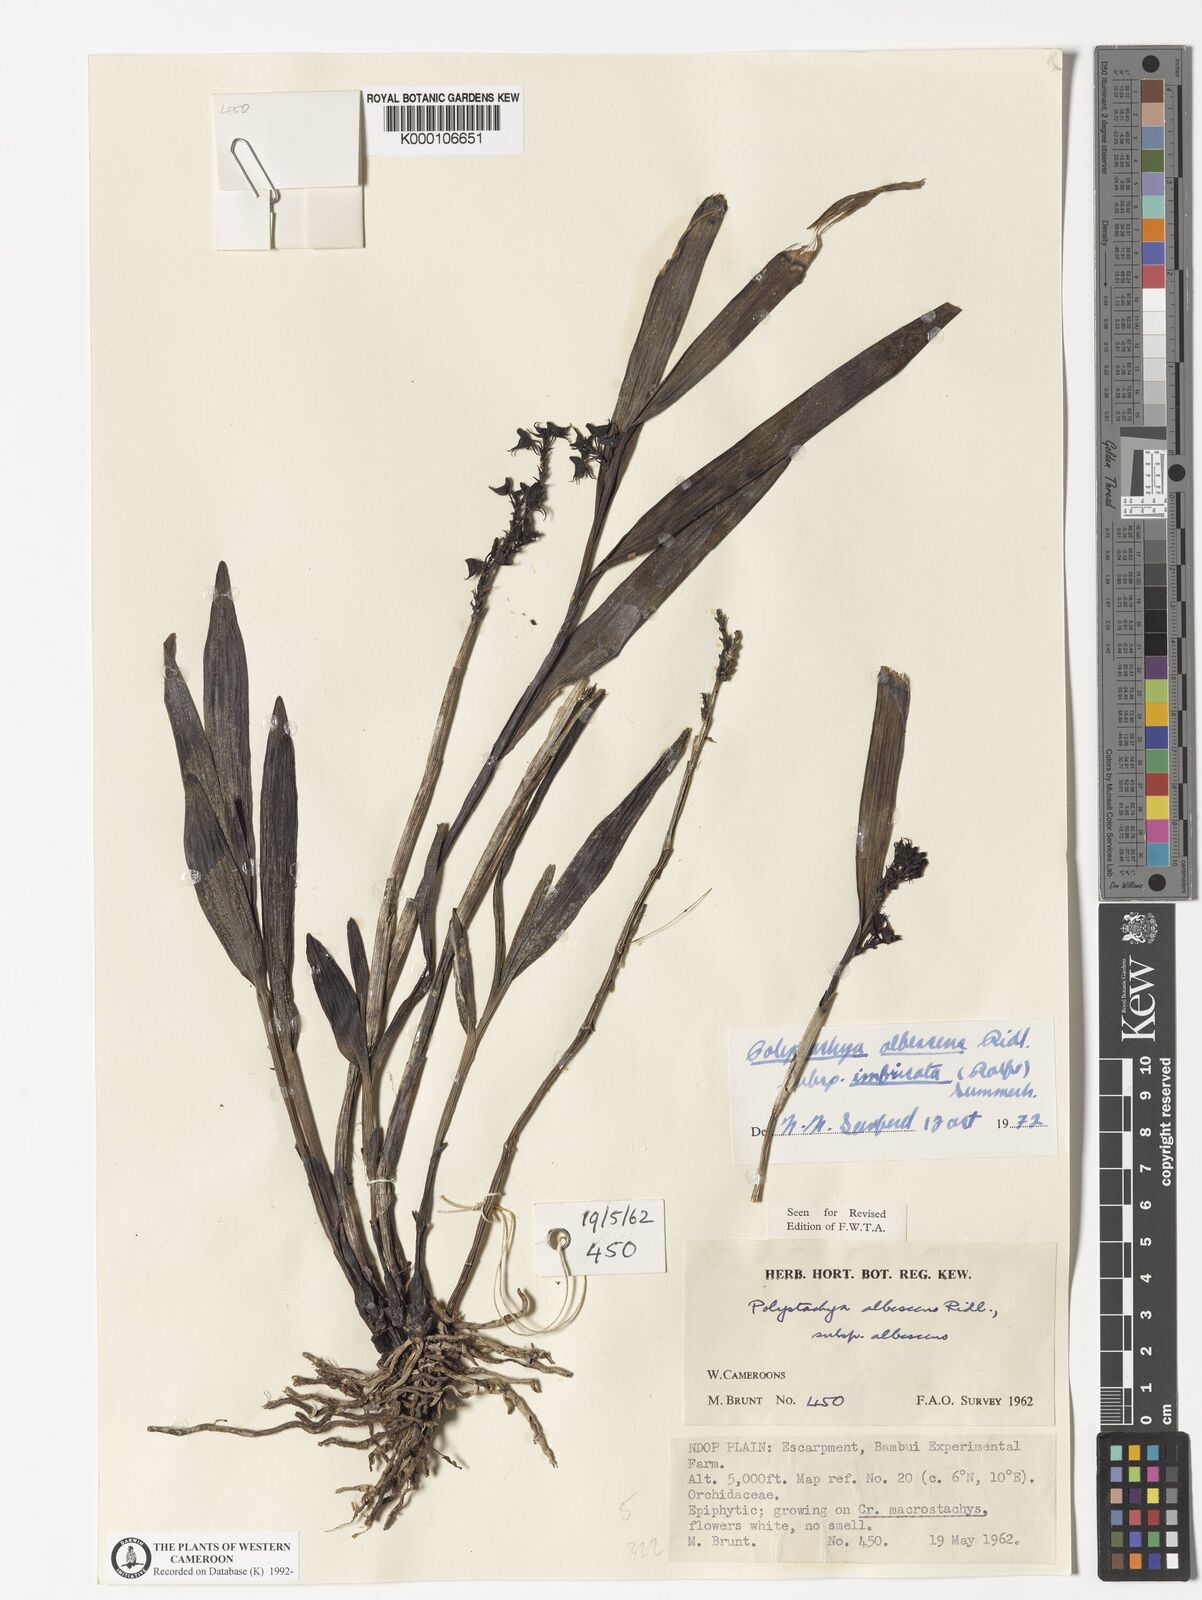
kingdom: Plantae
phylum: Tracheophyta
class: Liliopsida
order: Asparagales
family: Orchidaceae
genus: Polystachya
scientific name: Polystachya albescens
